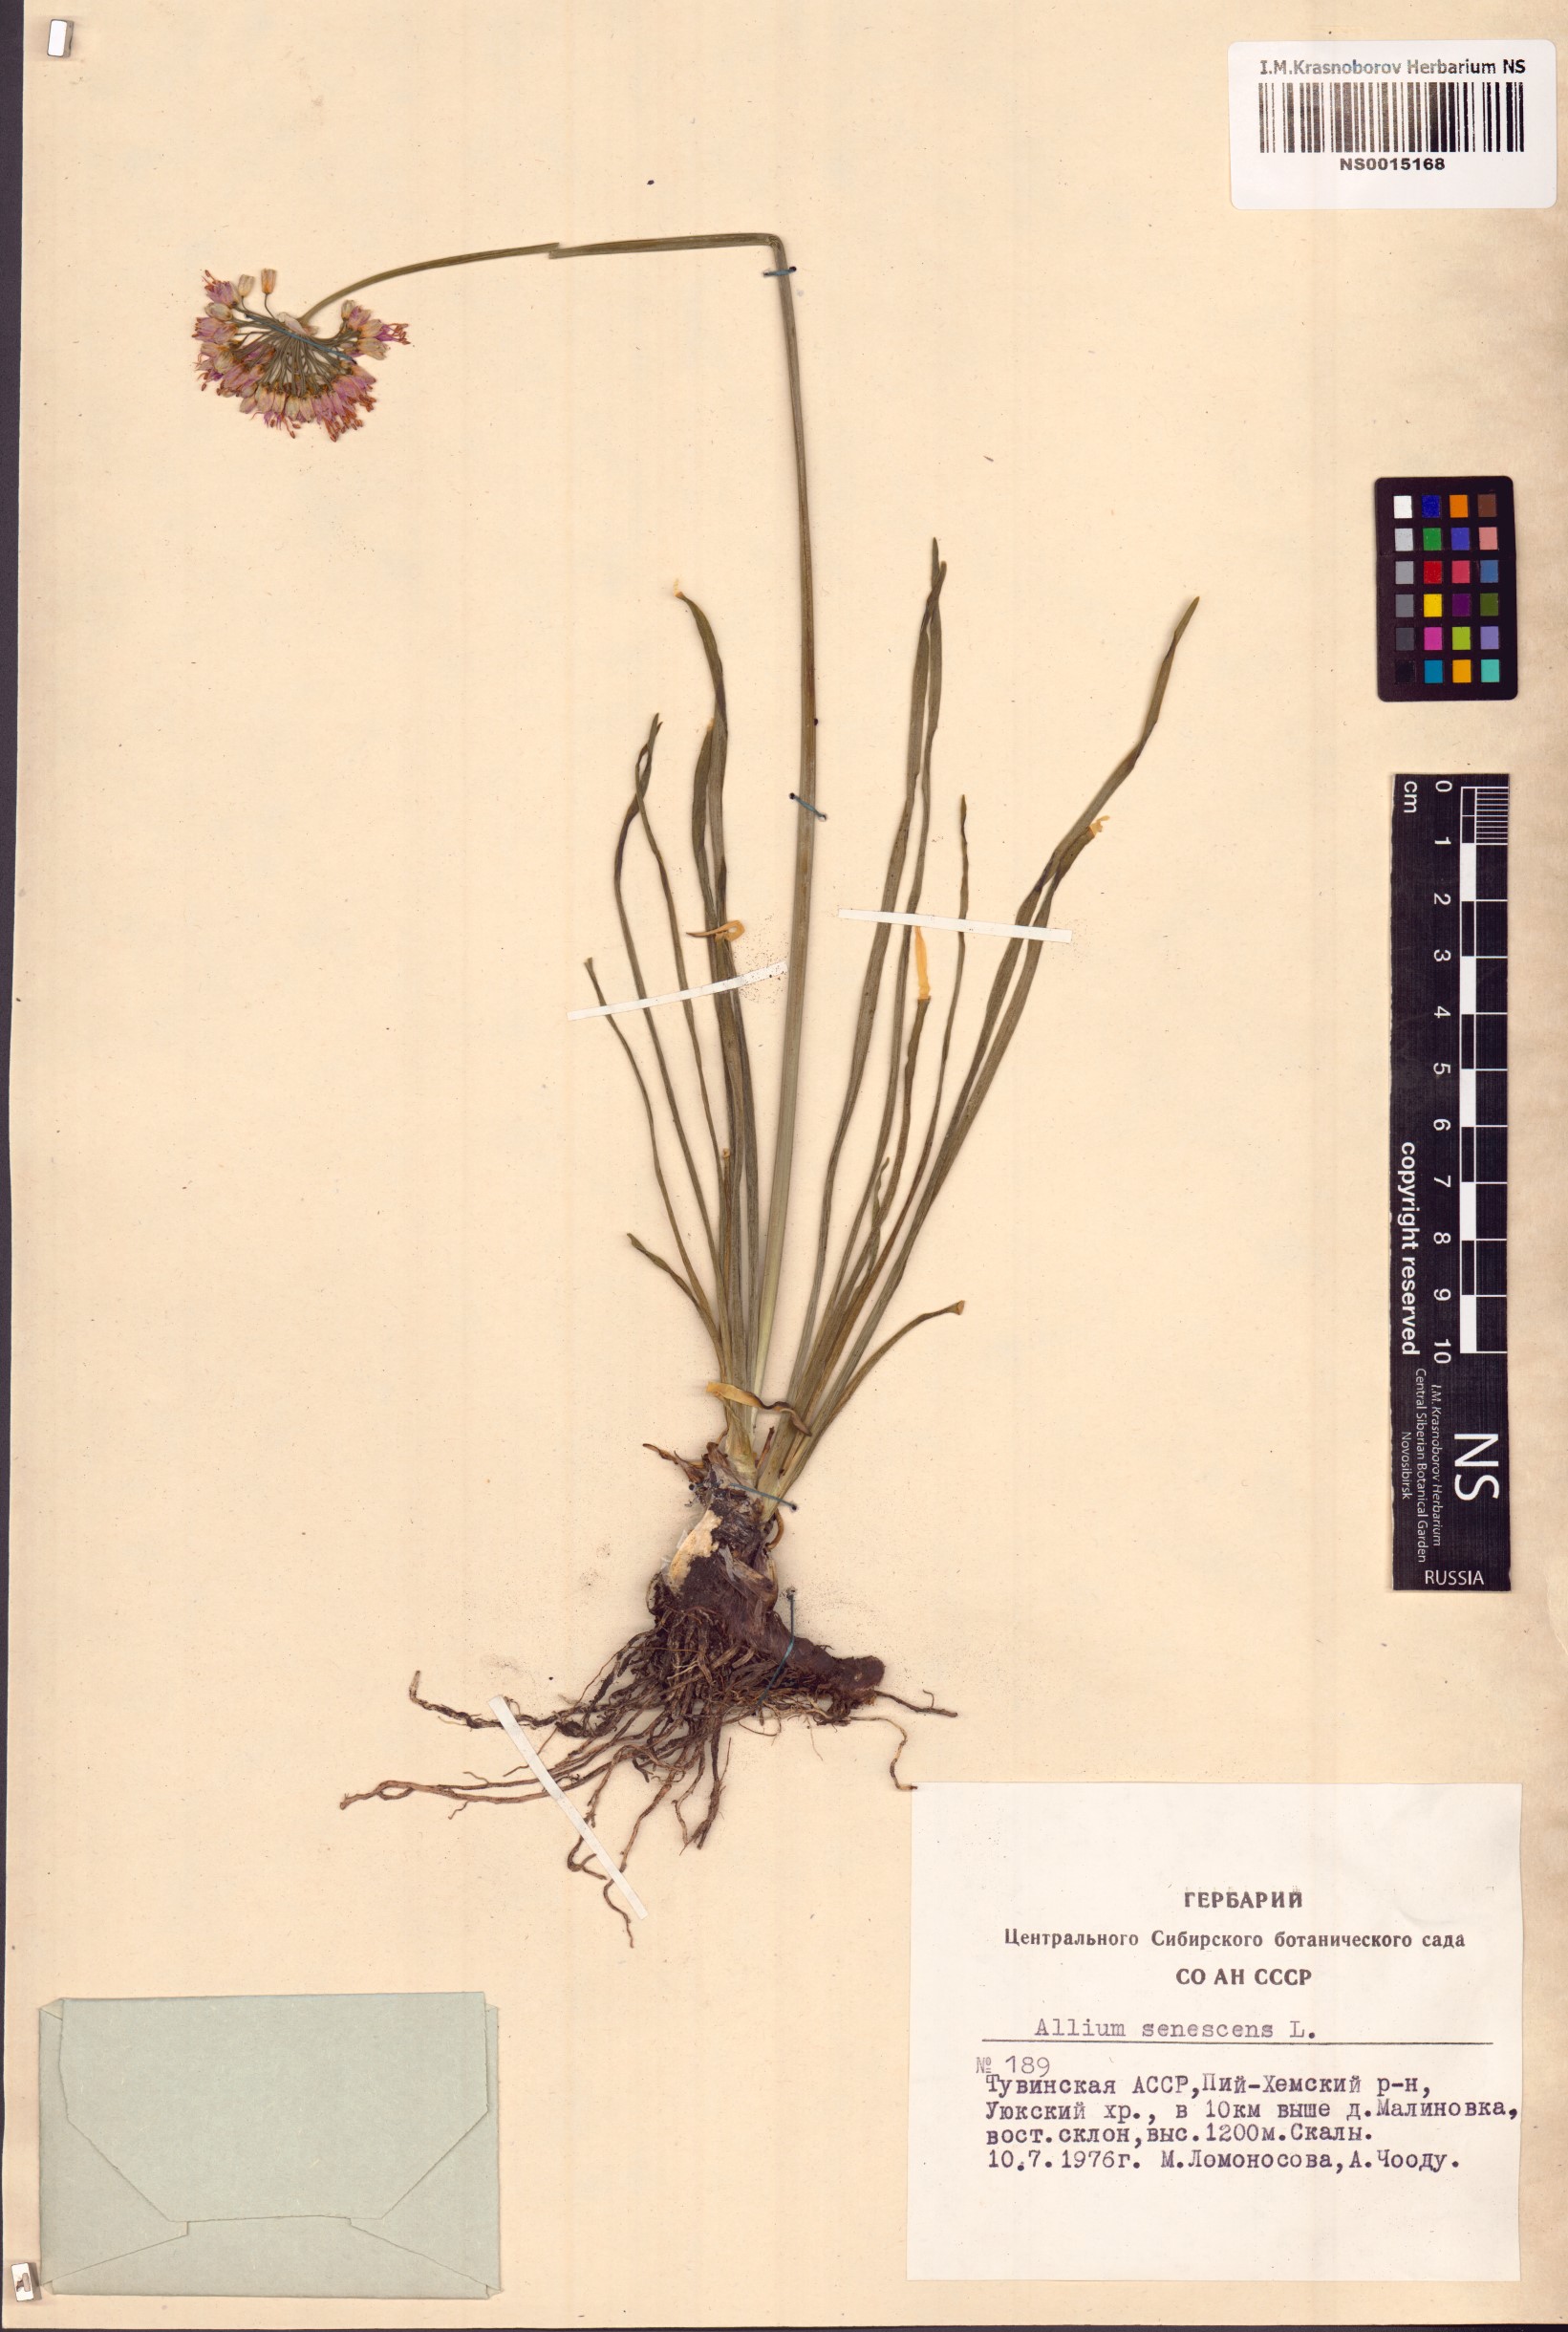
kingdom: Plantae
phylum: Tracheophyta
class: Liliopsida
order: Asparagales
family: Amaryllidaceae
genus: Allium
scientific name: Allium senescens
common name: German garlic
